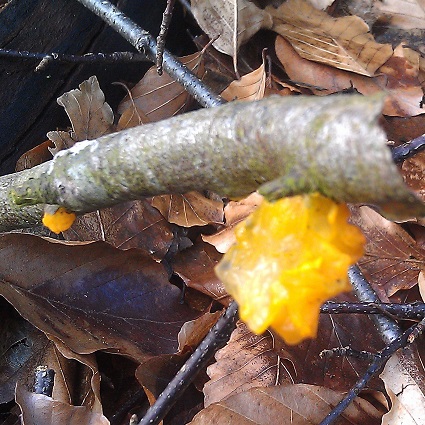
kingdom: Fungi
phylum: Basidiomycota
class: Tremellomycetes
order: Tremellales
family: Tremellaceae
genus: Tremella
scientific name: Tremella mesenterica
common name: gul bævresvamp
